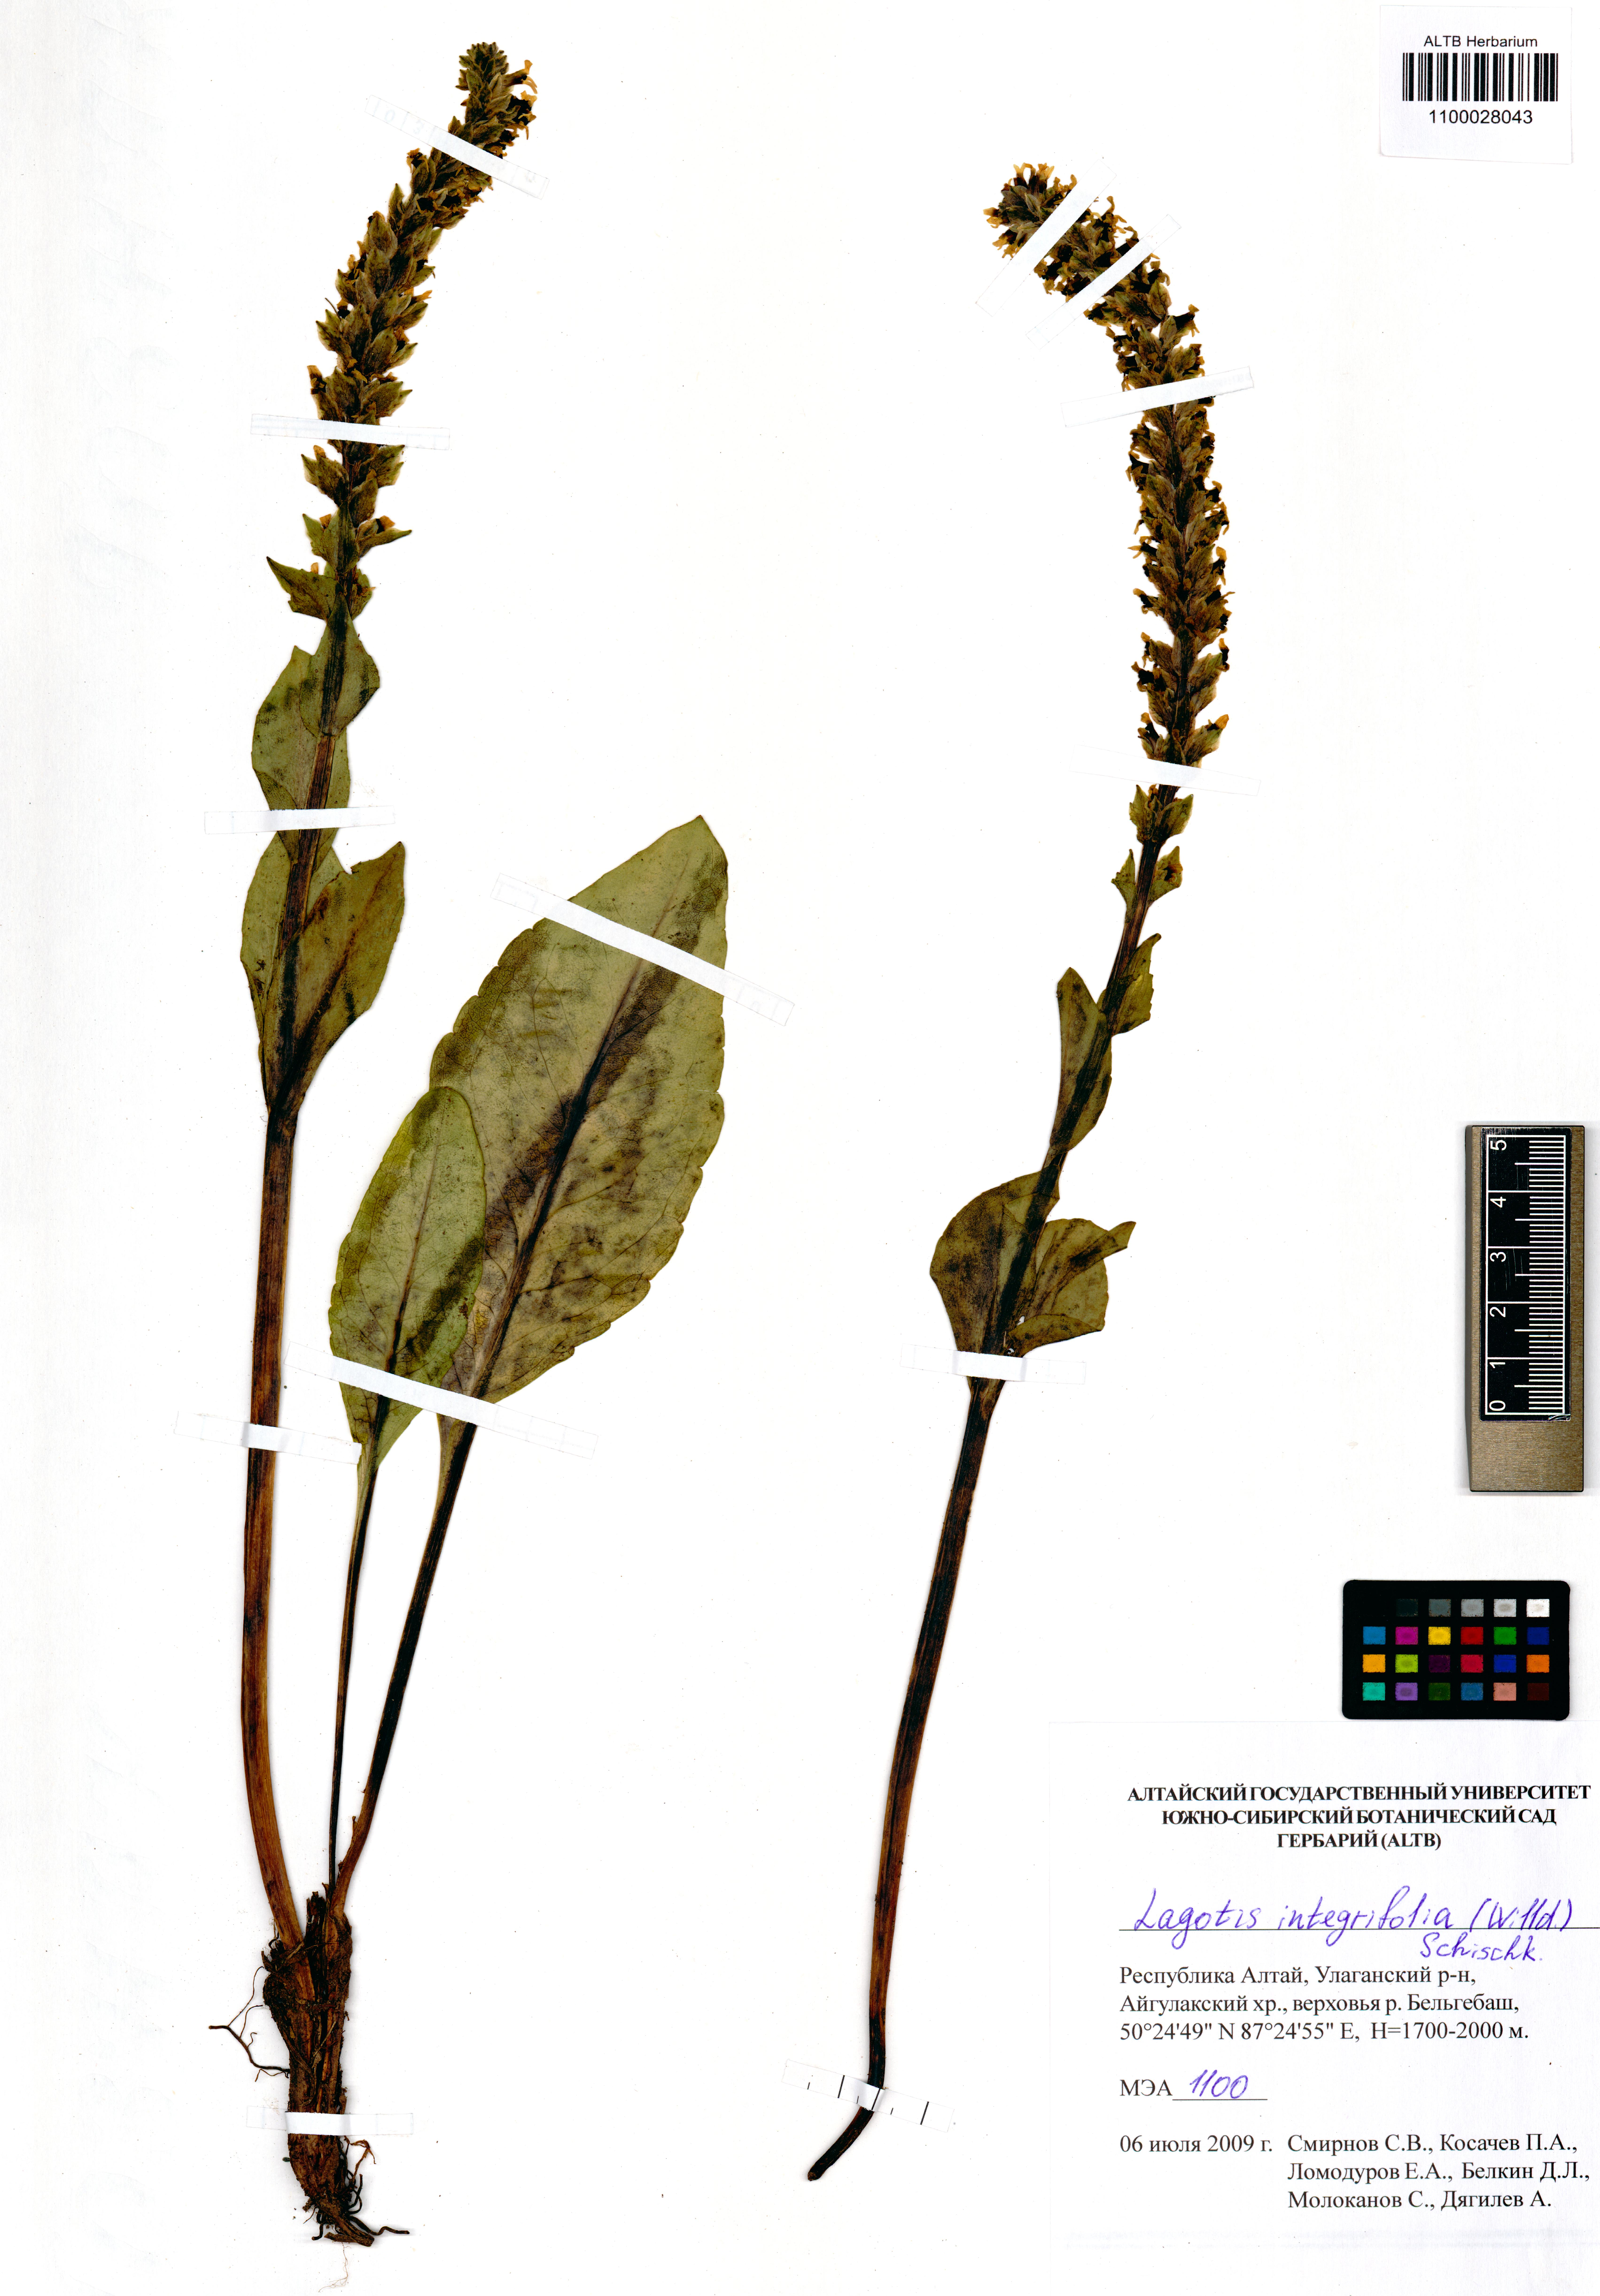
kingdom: Plantae
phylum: Tracheophyta
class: Magnoliopsida
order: Lamiales
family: Plantaginaceae
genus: Lagotis
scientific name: Lagotis integrifolia
